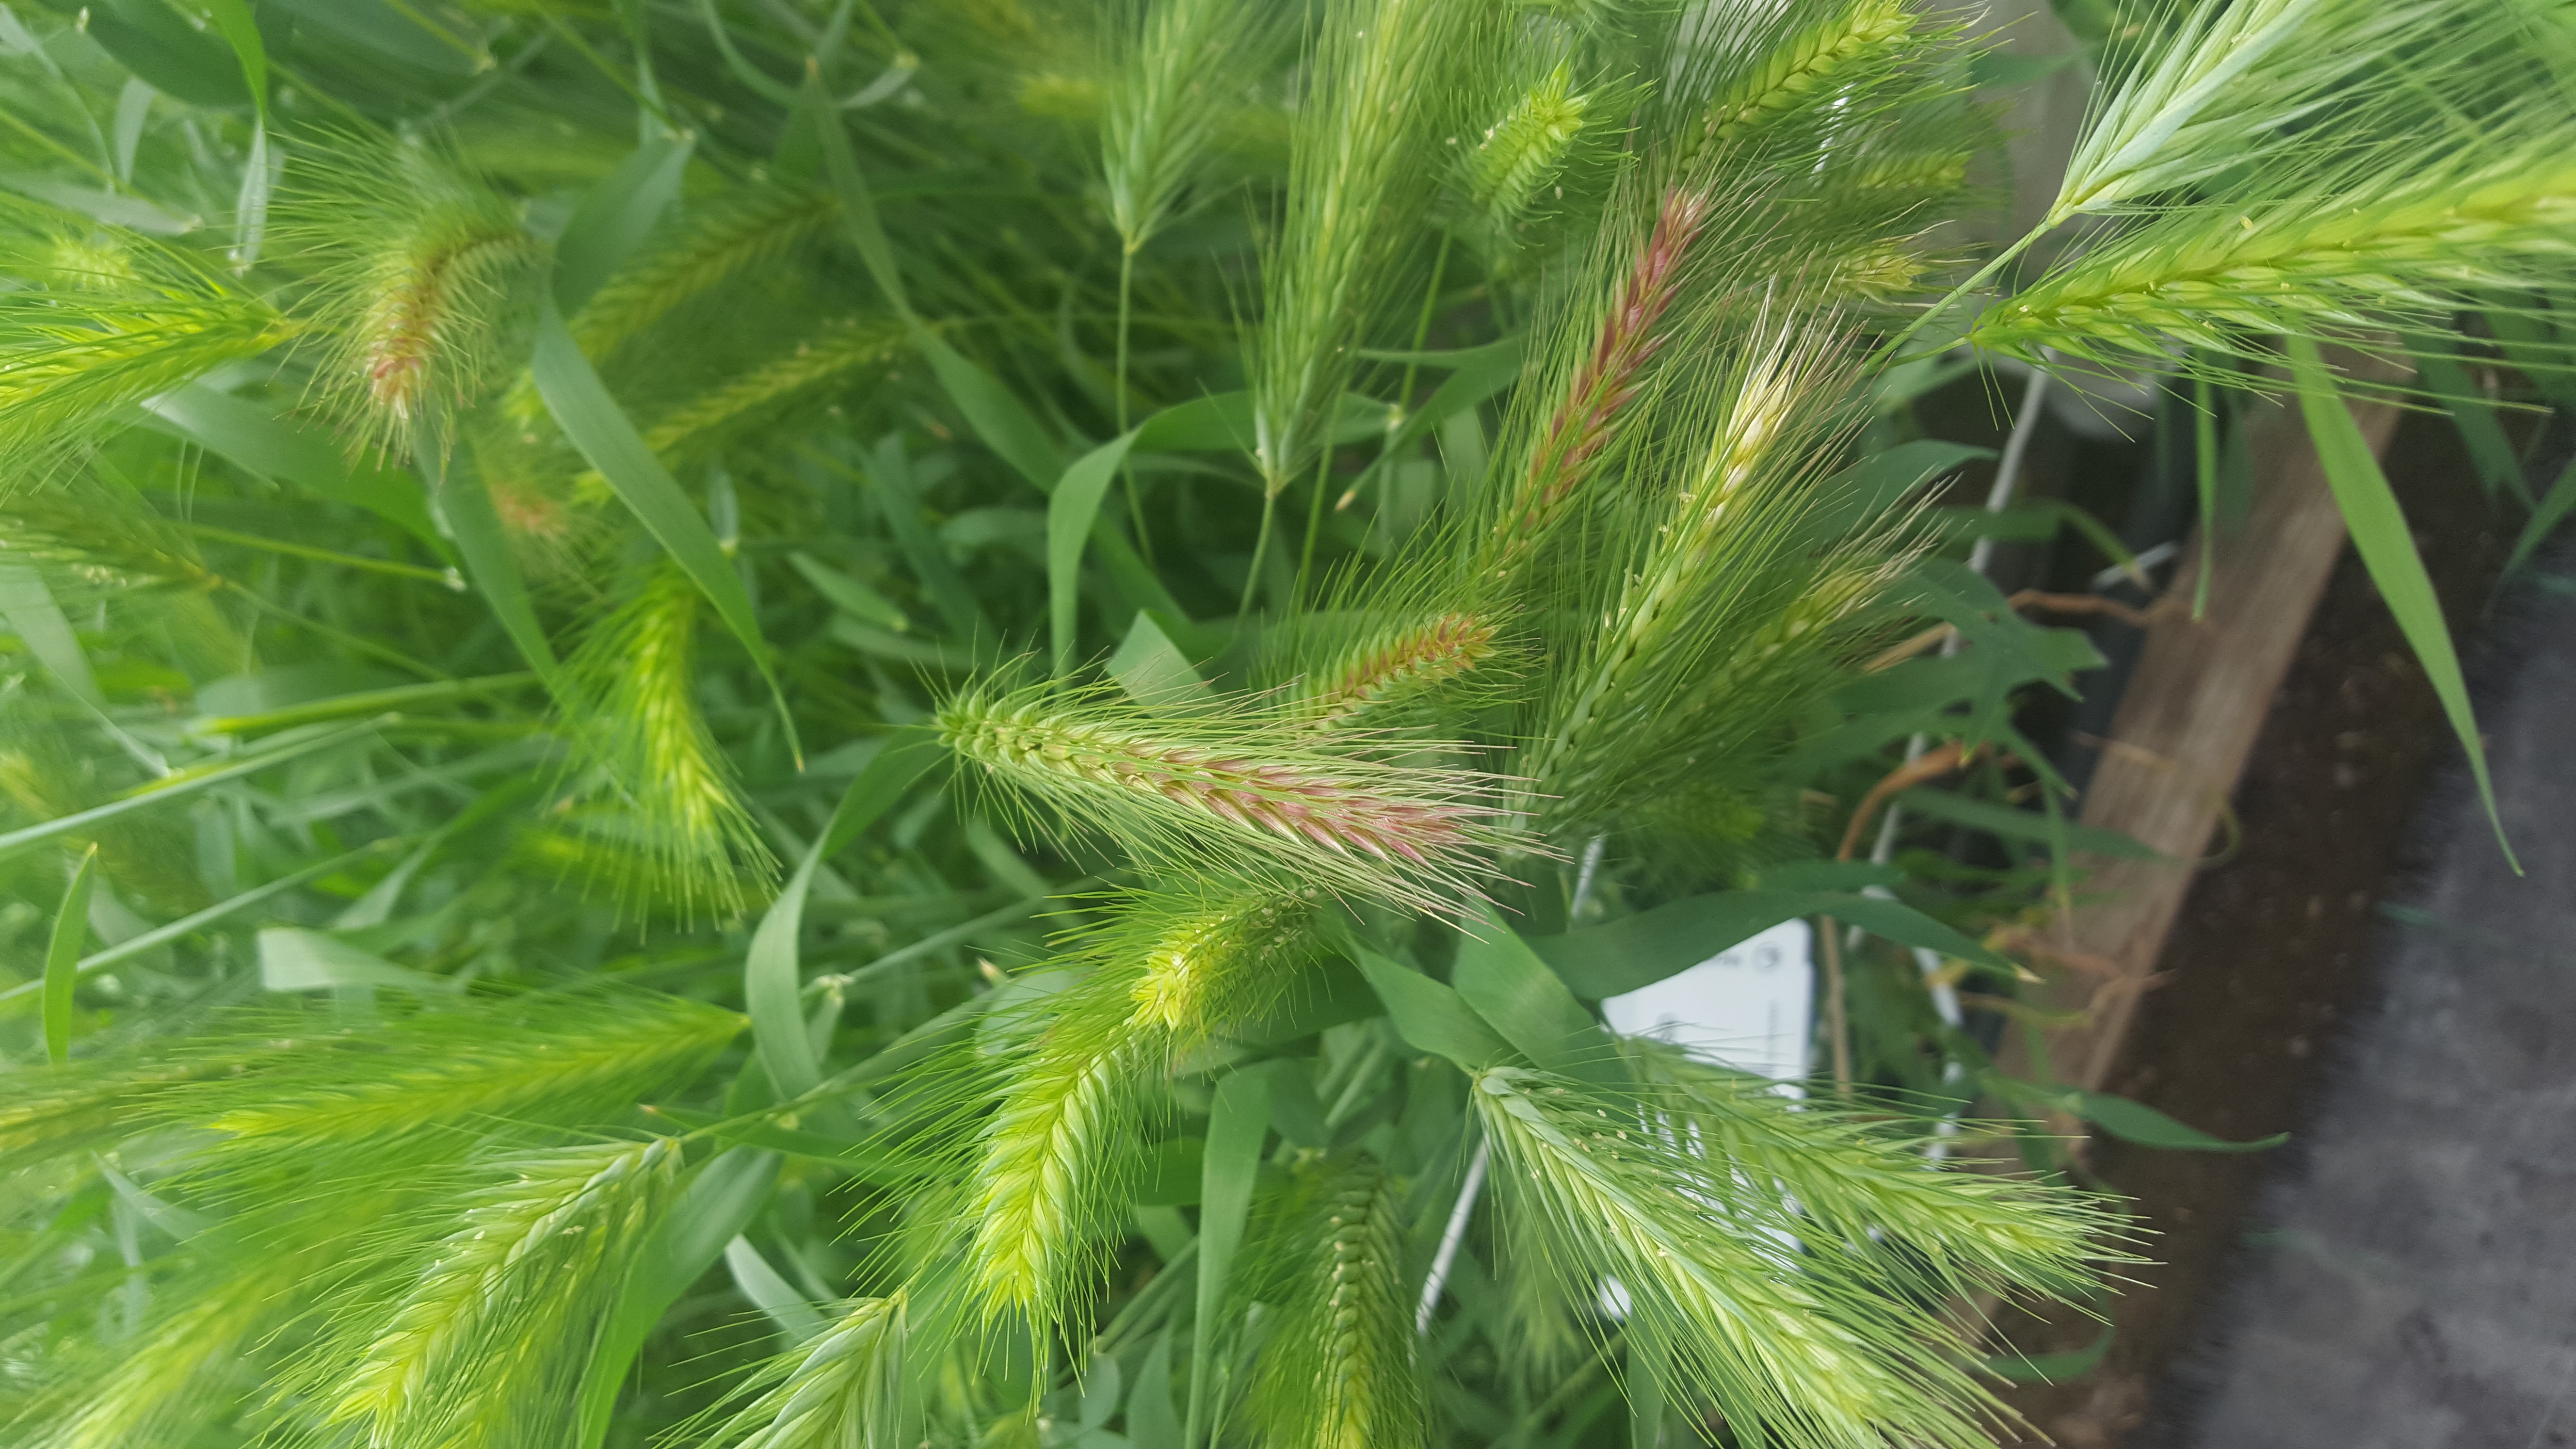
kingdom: Plantae
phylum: Tracheophyta
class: Liliopsida
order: Poales
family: Poaceae
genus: Hordeum
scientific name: Hordeum murinum
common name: Wall barley
